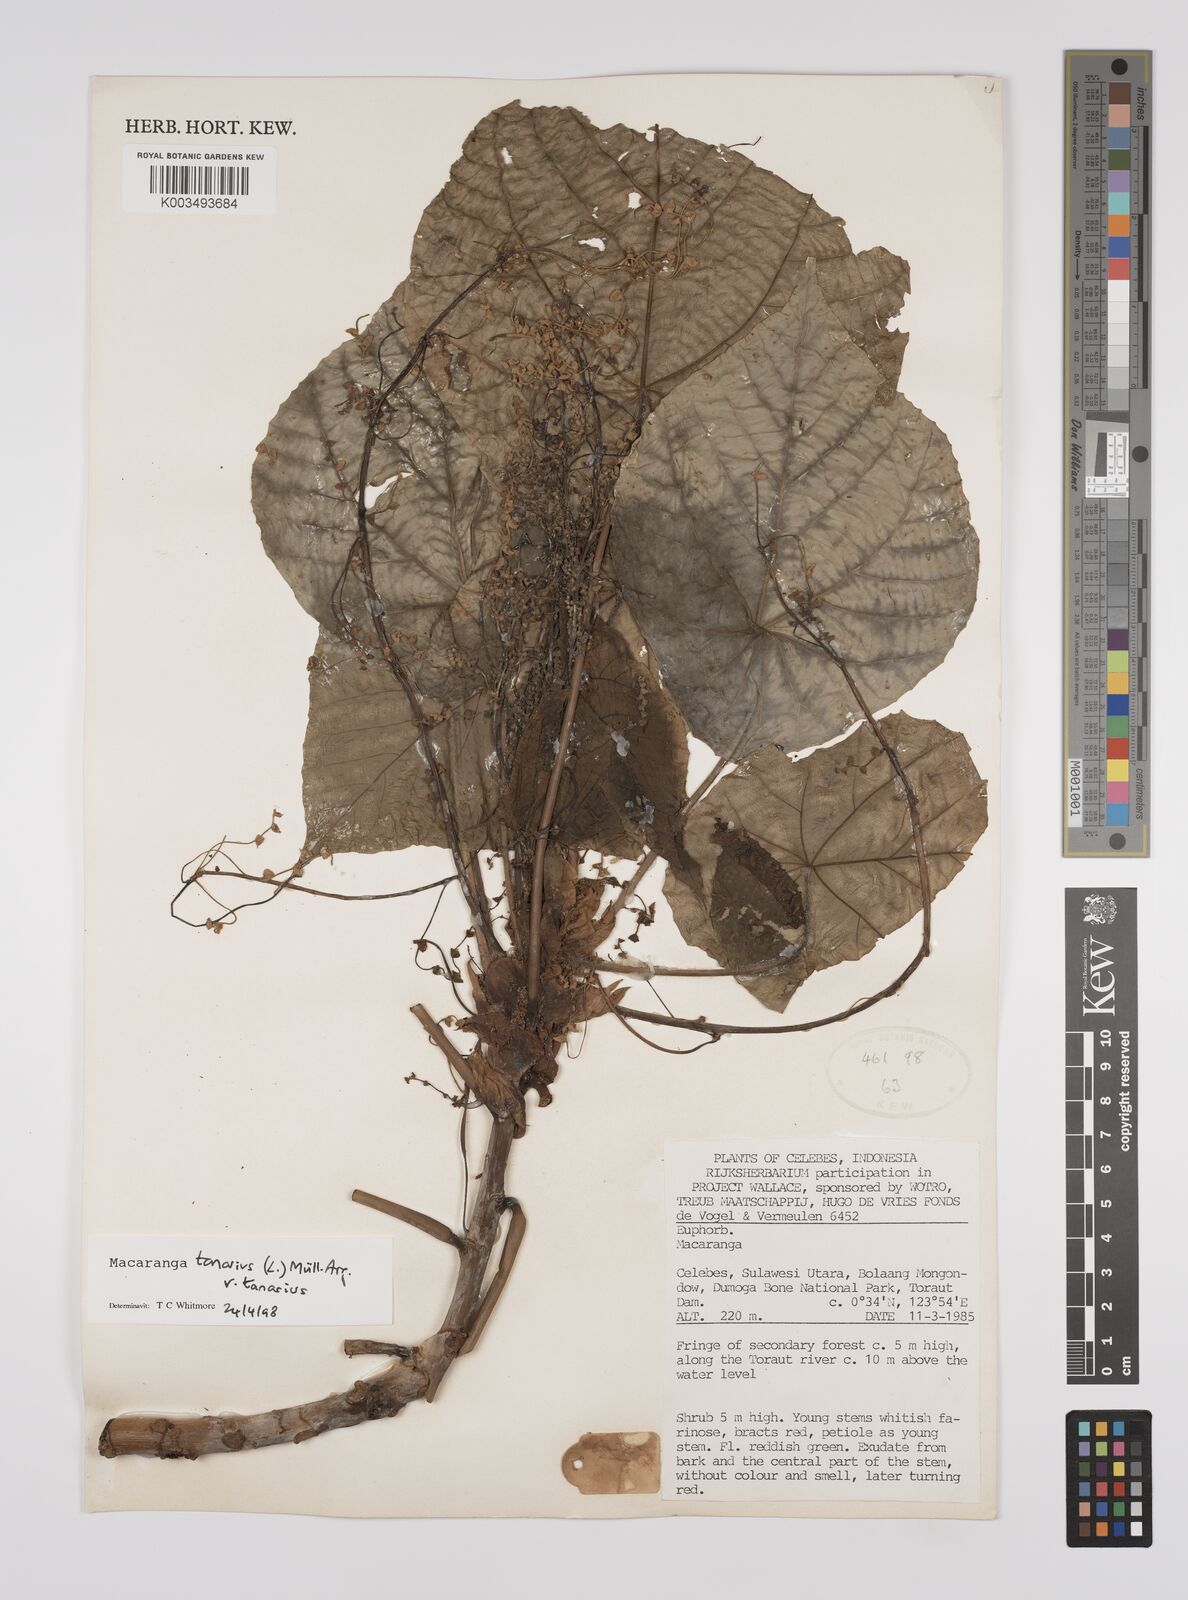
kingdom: Plantae
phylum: Tracheophyta
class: Magnoliopsida
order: Malpighiales
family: Euphorbiaceae
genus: Macaranga
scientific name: Macaranga tanarius
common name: Parasol leaf tree
